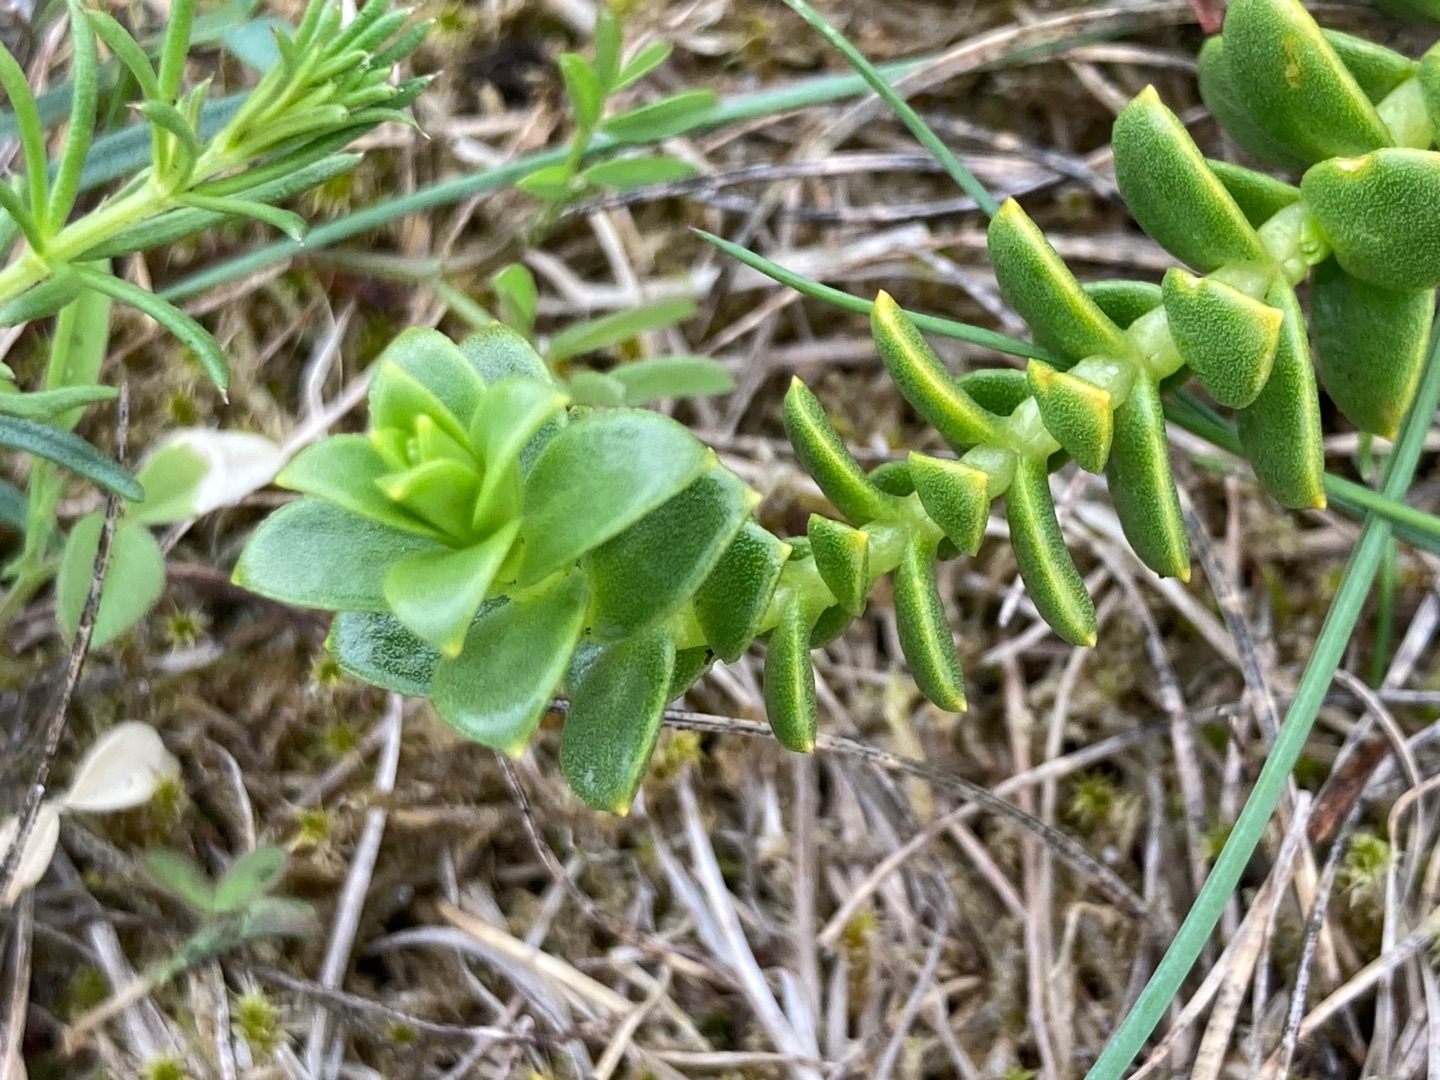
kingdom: Plantae
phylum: Tracheophyta
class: Magnoliopsida
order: Caryophyllales
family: Caryophyllaceae
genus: Honckenya
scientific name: Honckenya peploides
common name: Strandarve
